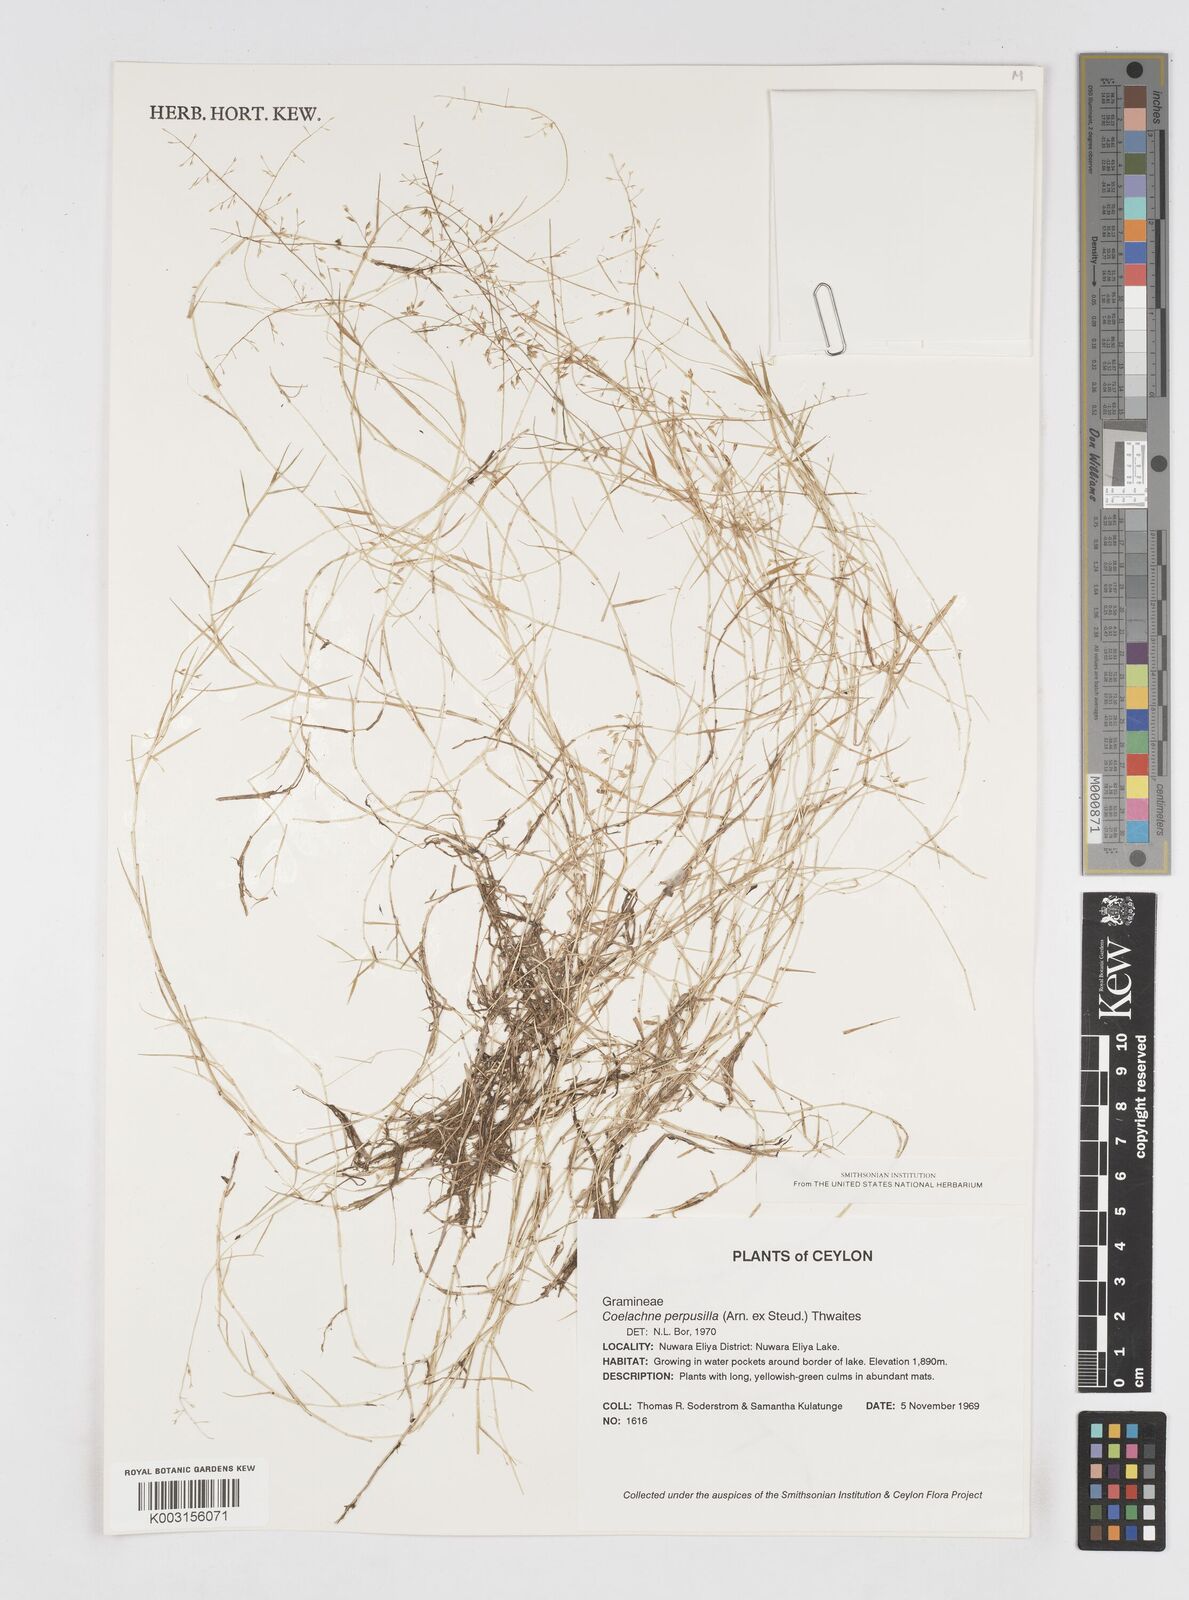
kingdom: Plantae
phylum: Tracheophyta
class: Liliopsida
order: Poales
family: Poaceae
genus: Coelachne
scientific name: Coelachne perpusilla
